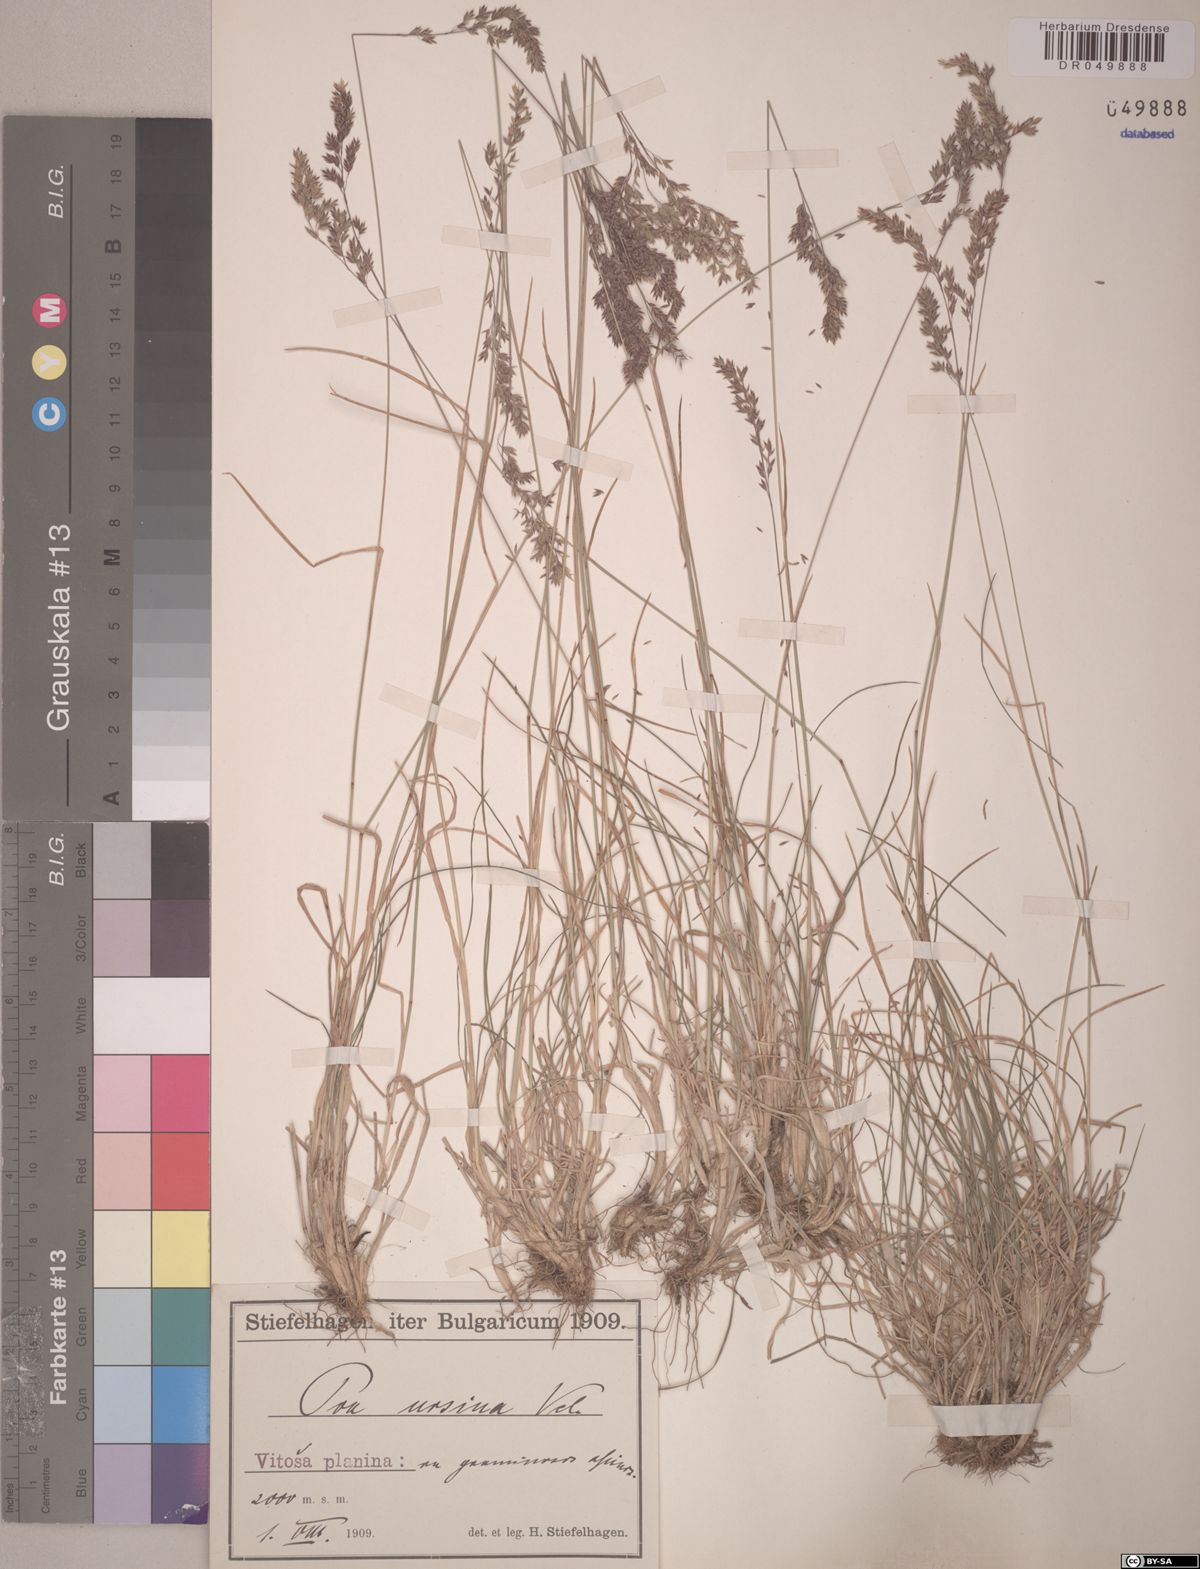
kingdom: Plantae
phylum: Tracheophyta
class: Liliopsida
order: Poales
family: Poaceae
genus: Poa
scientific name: Poa ursina
